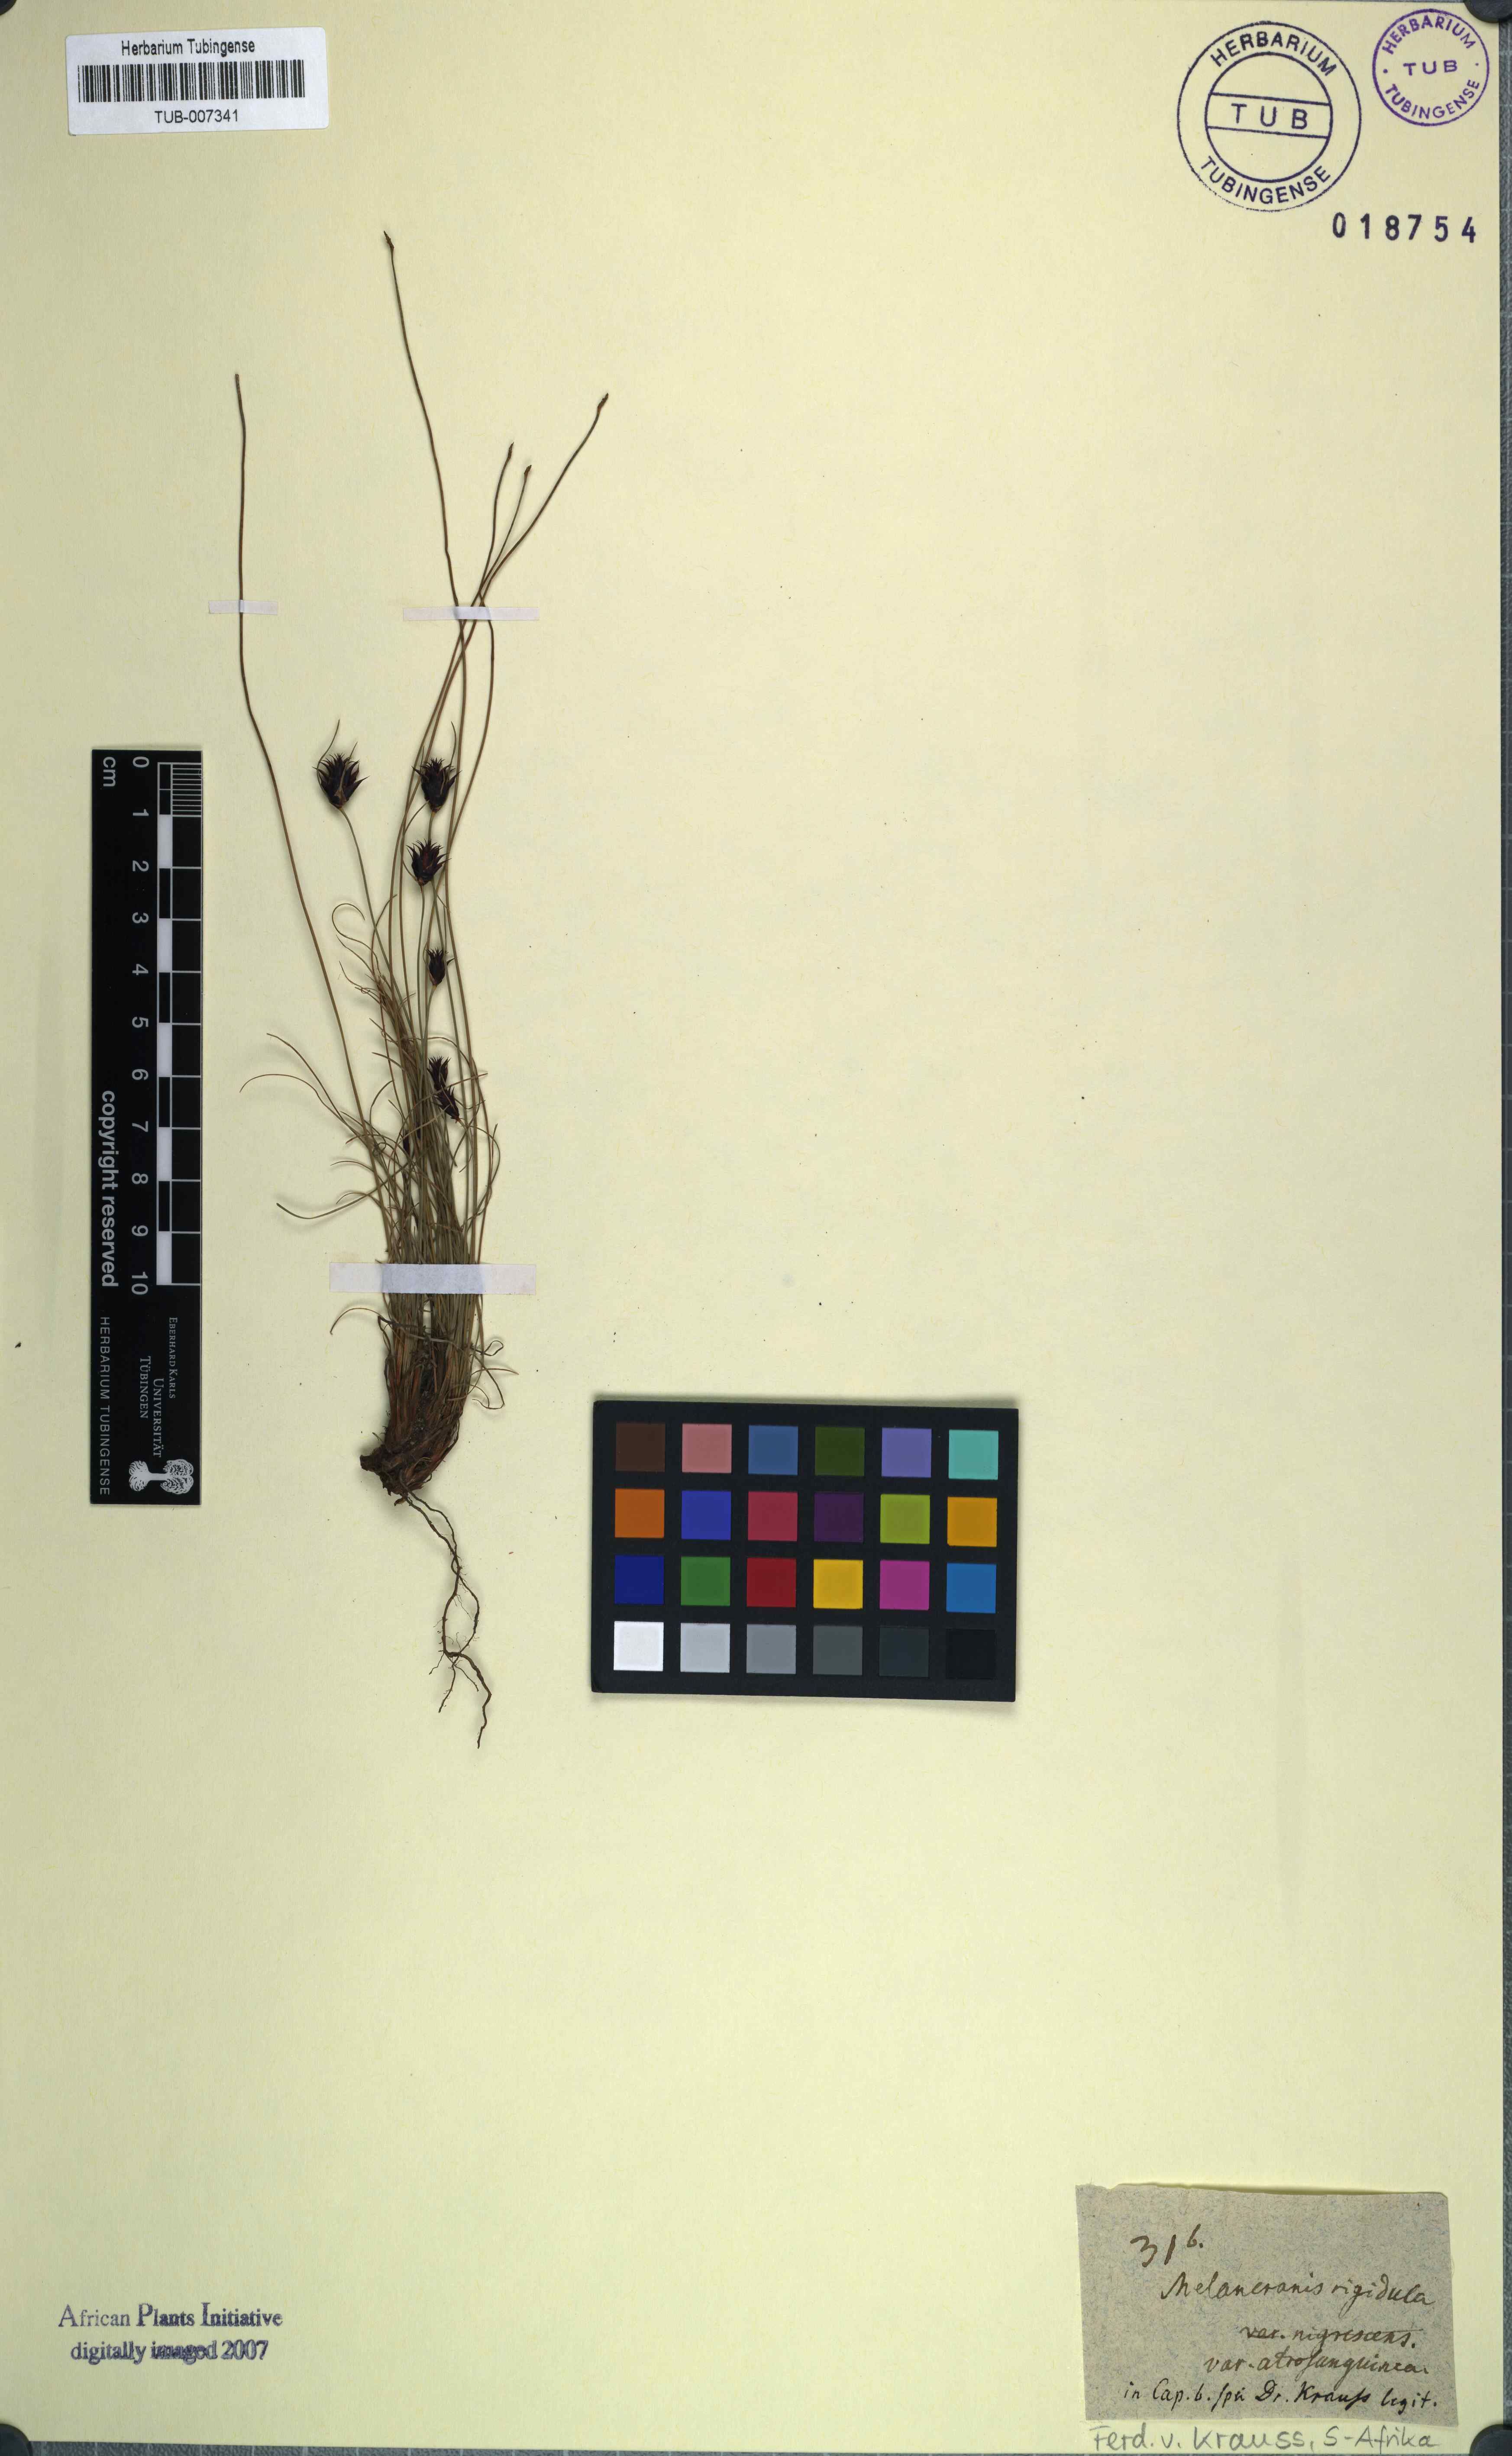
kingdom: Plantae
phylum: Tracheophyta
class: Liliopsida
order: Poales
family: Cyperaceae
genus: Ficinia
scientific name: Ficinia nigrescens
